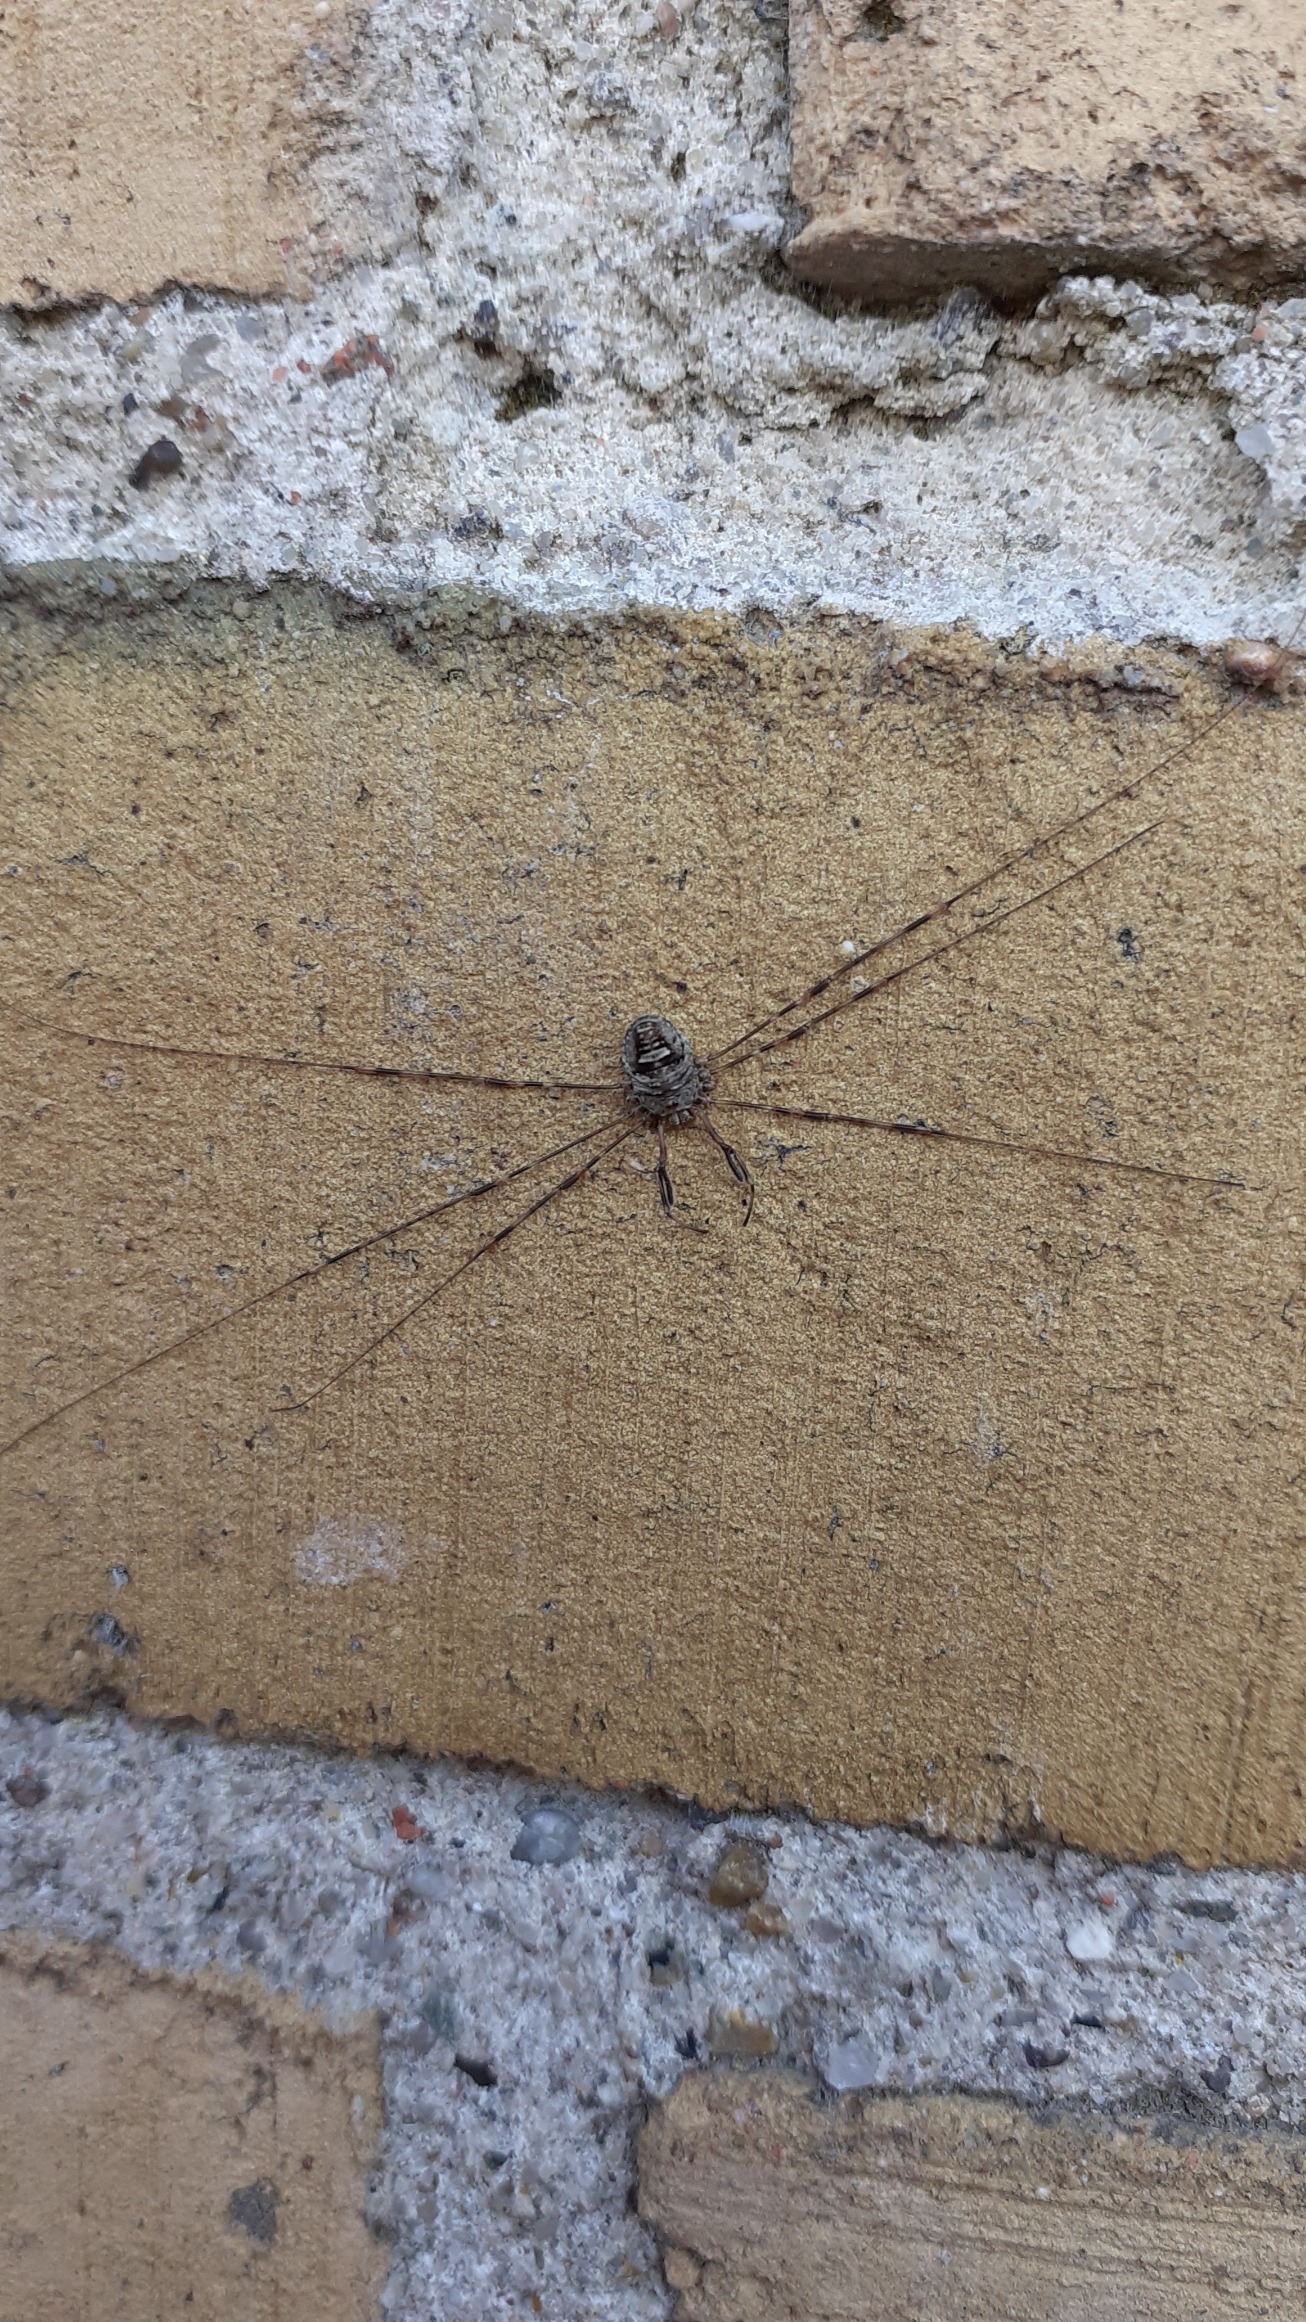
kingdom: Animalia
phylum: Arthropoda
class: Arachnida
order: Opiliones
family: Phalangiidae
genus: Dicranopalpus
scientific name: Dicranopalpus ramosus
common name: Gaffelmejer
